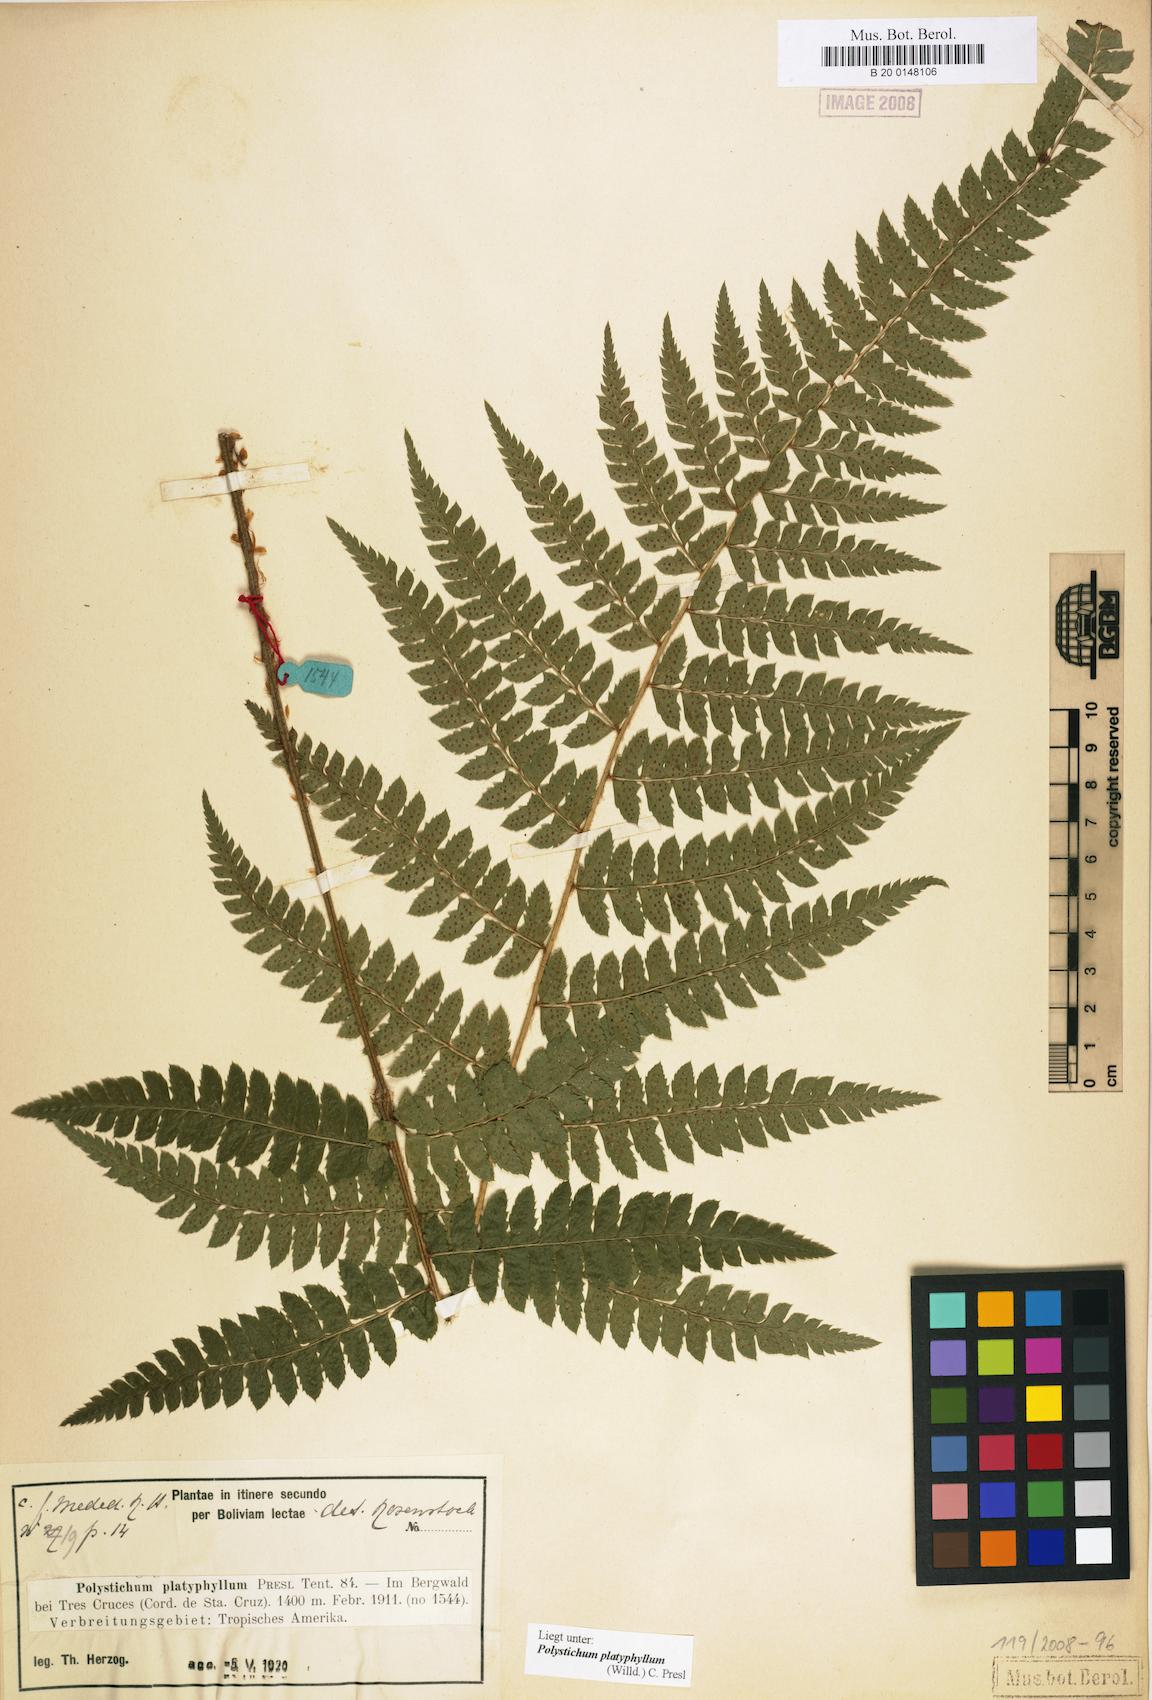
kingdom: Plantae
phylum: Tracheophyta
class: Polypodiopsida
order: Polypodiales
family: Dryopteridaceae
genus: Polystichum
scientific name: Polystichum platyphyllum
